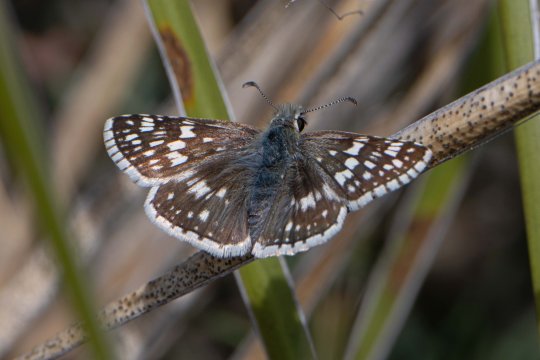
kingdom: Animalia
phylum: Arthropoda
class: Insecta
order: Lepidoptera
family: Hesperiidae
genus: Pyrgus
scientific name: Pyrgus communis
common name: Common Checkered-Skipper
